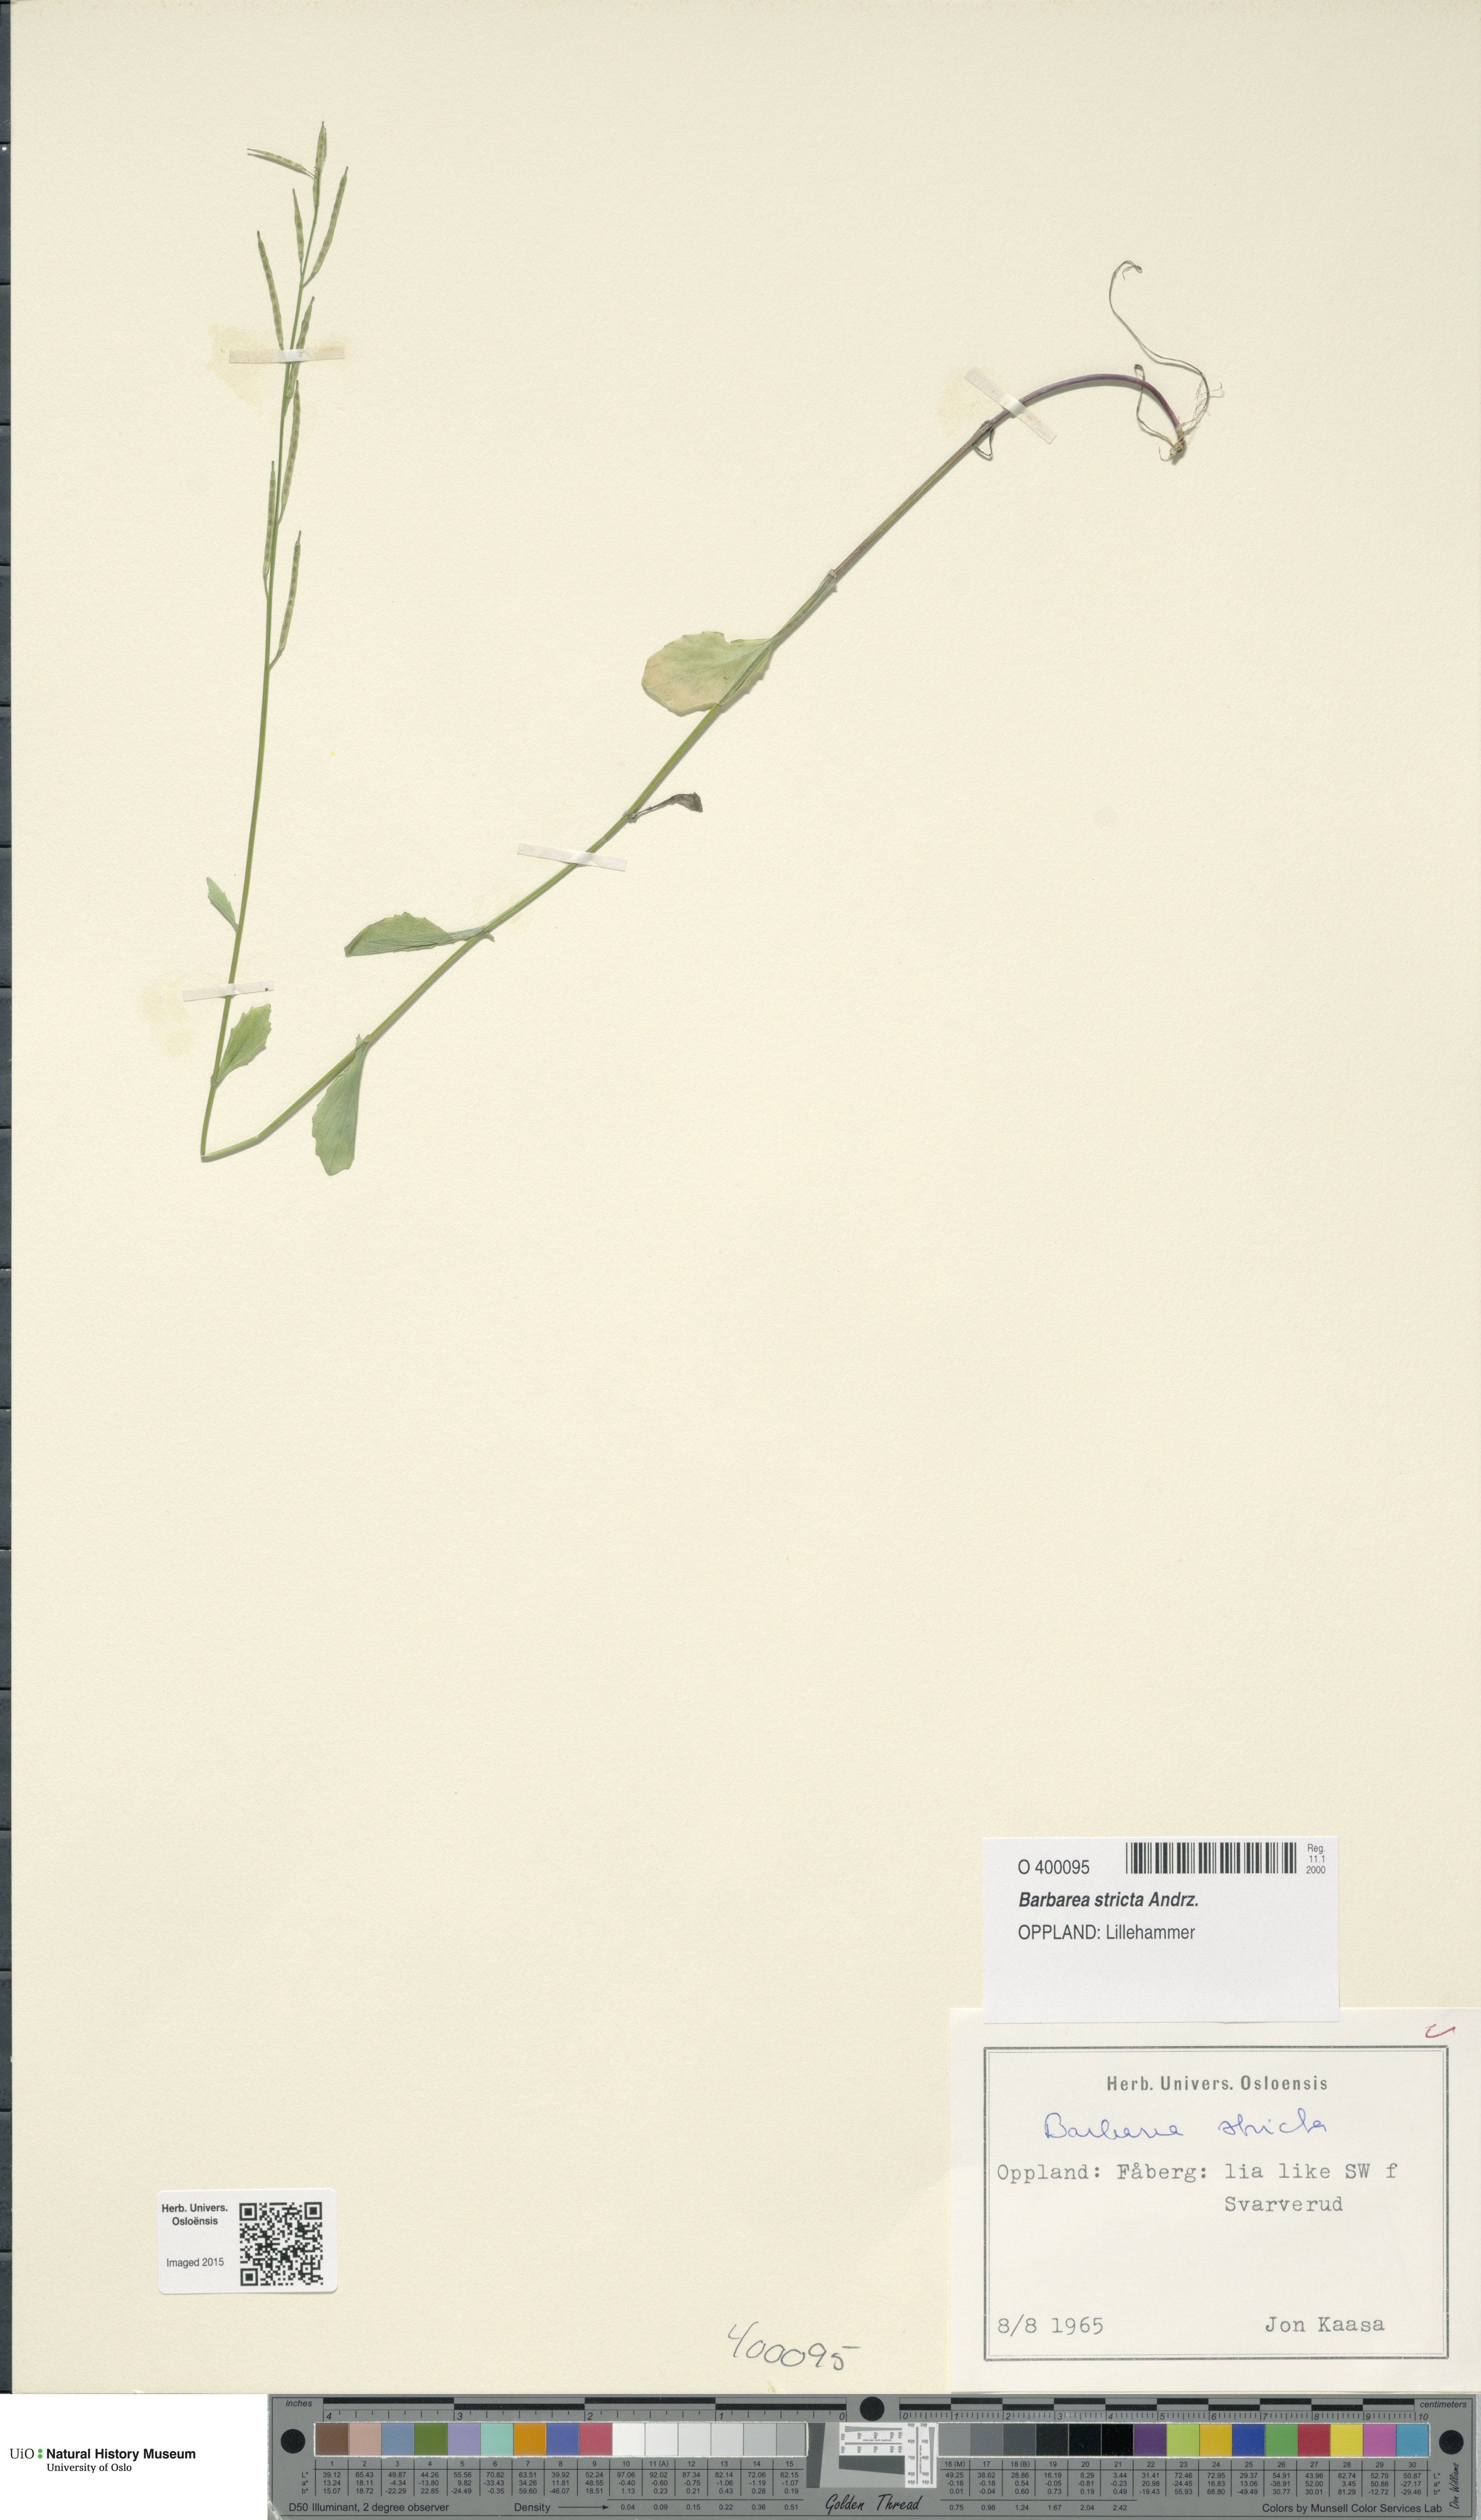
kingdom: Plantae
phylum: Tracheophyta
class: Magnoliopsida
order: Brassicales
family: Brassicaceae
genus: Barbarea
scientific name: Barbarea stricta
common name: Small-flowered winter-cress
